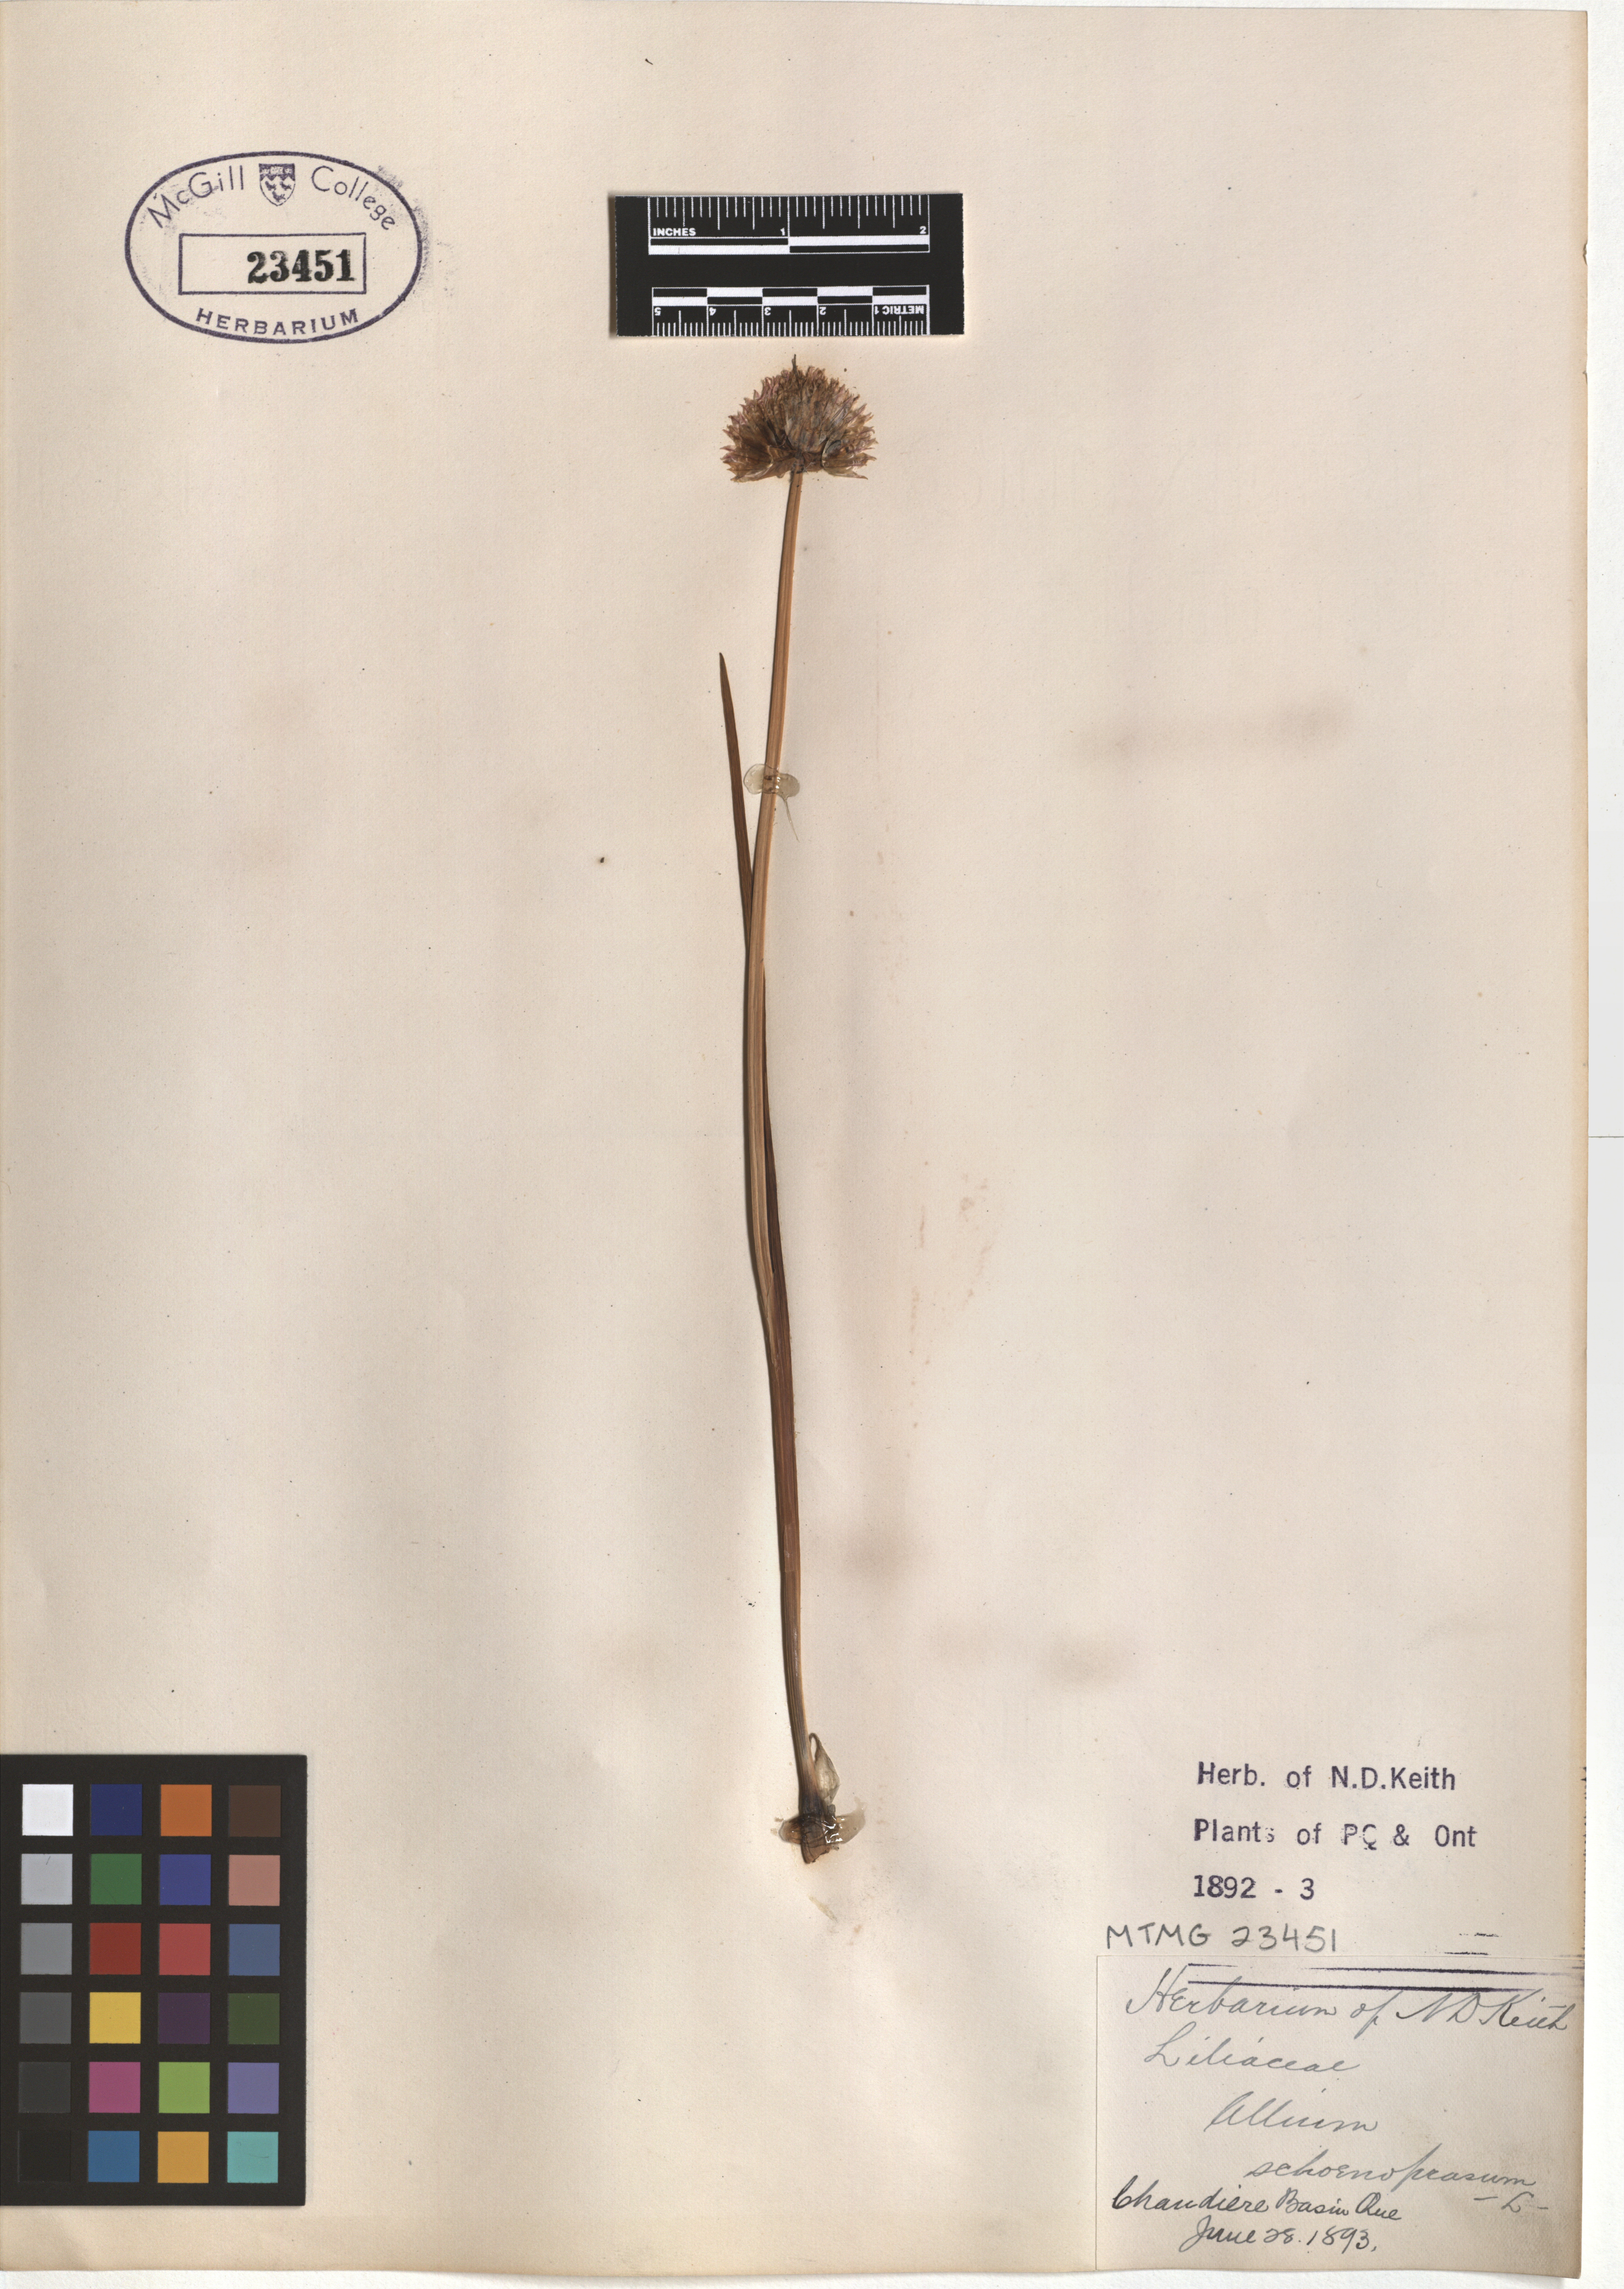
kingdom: Plantae
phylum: Tracheophyta
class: Liliopsida
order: Asparagales
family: Amaryllidaceae
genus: Allium
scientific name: Allium schoenoprasum
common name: Chives
